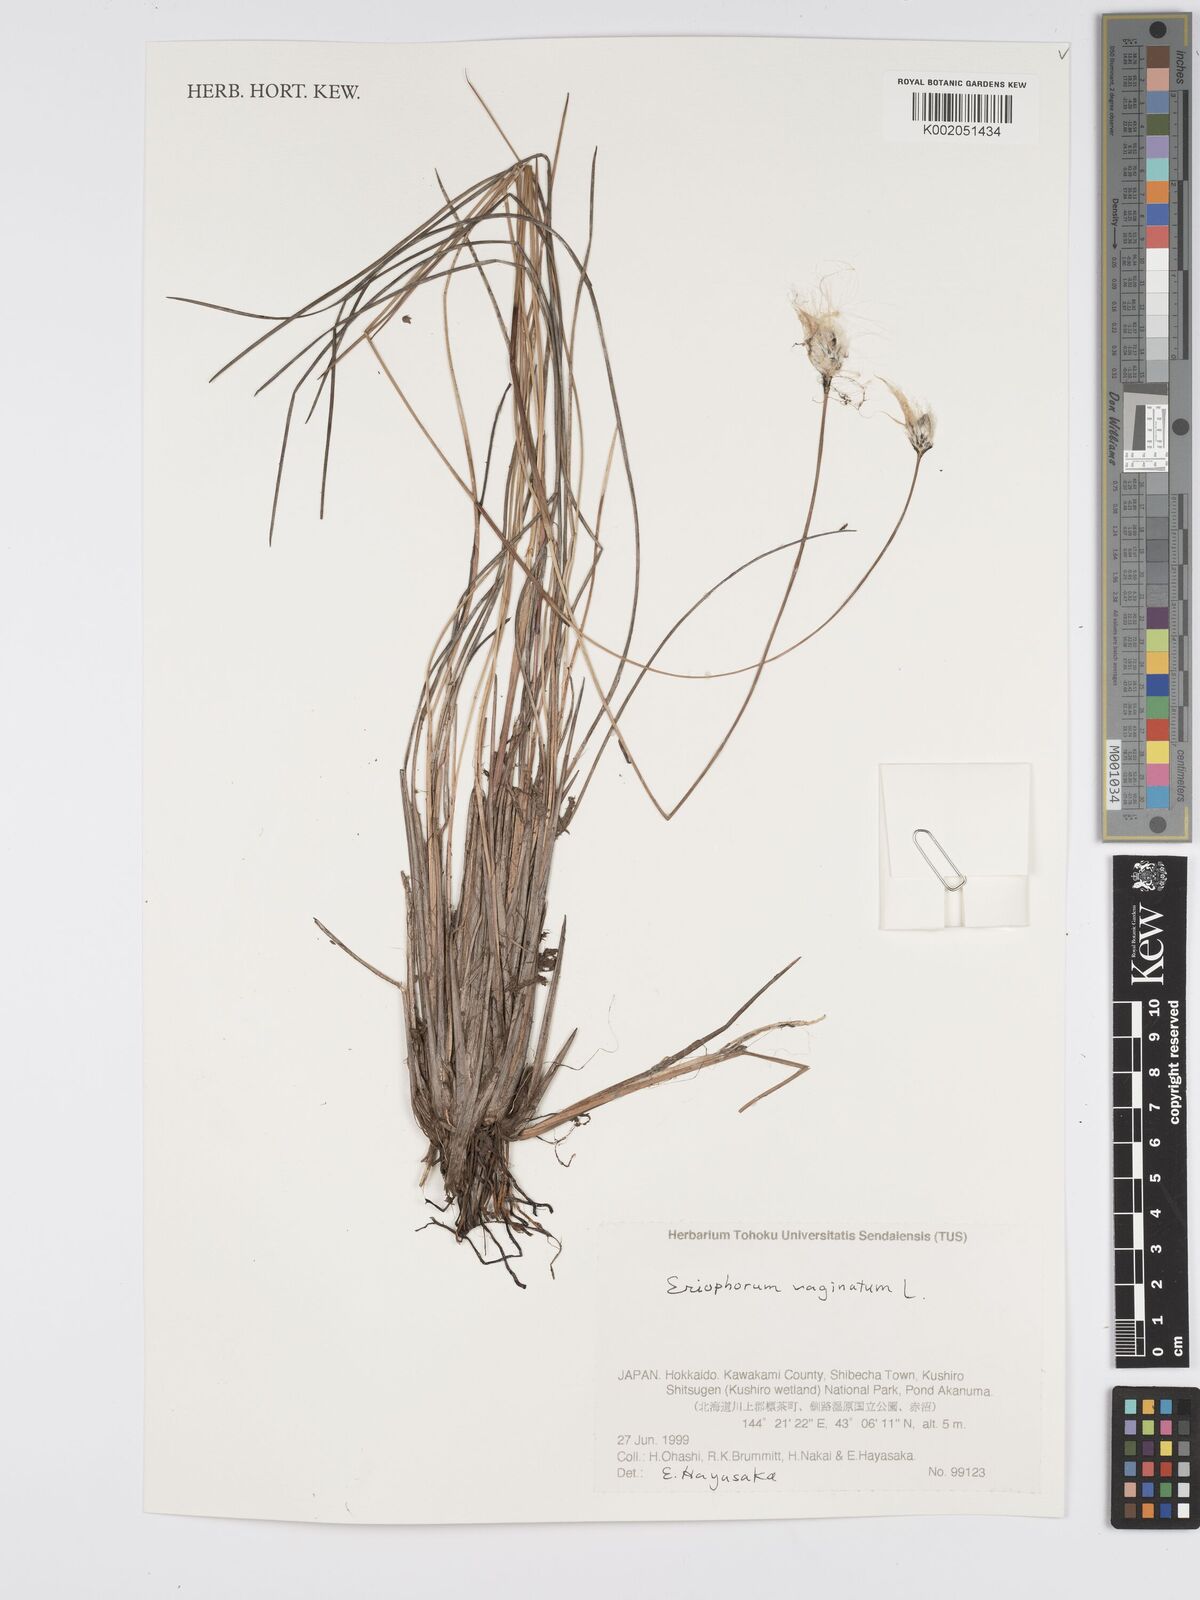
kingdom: Plantae
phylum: Tracheophyta
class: Liliopsida
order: Poales
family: Cyperaceae
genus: Eriophorum
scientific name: Eriophorum vaginatum
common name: Hare's-tail cottongrass
